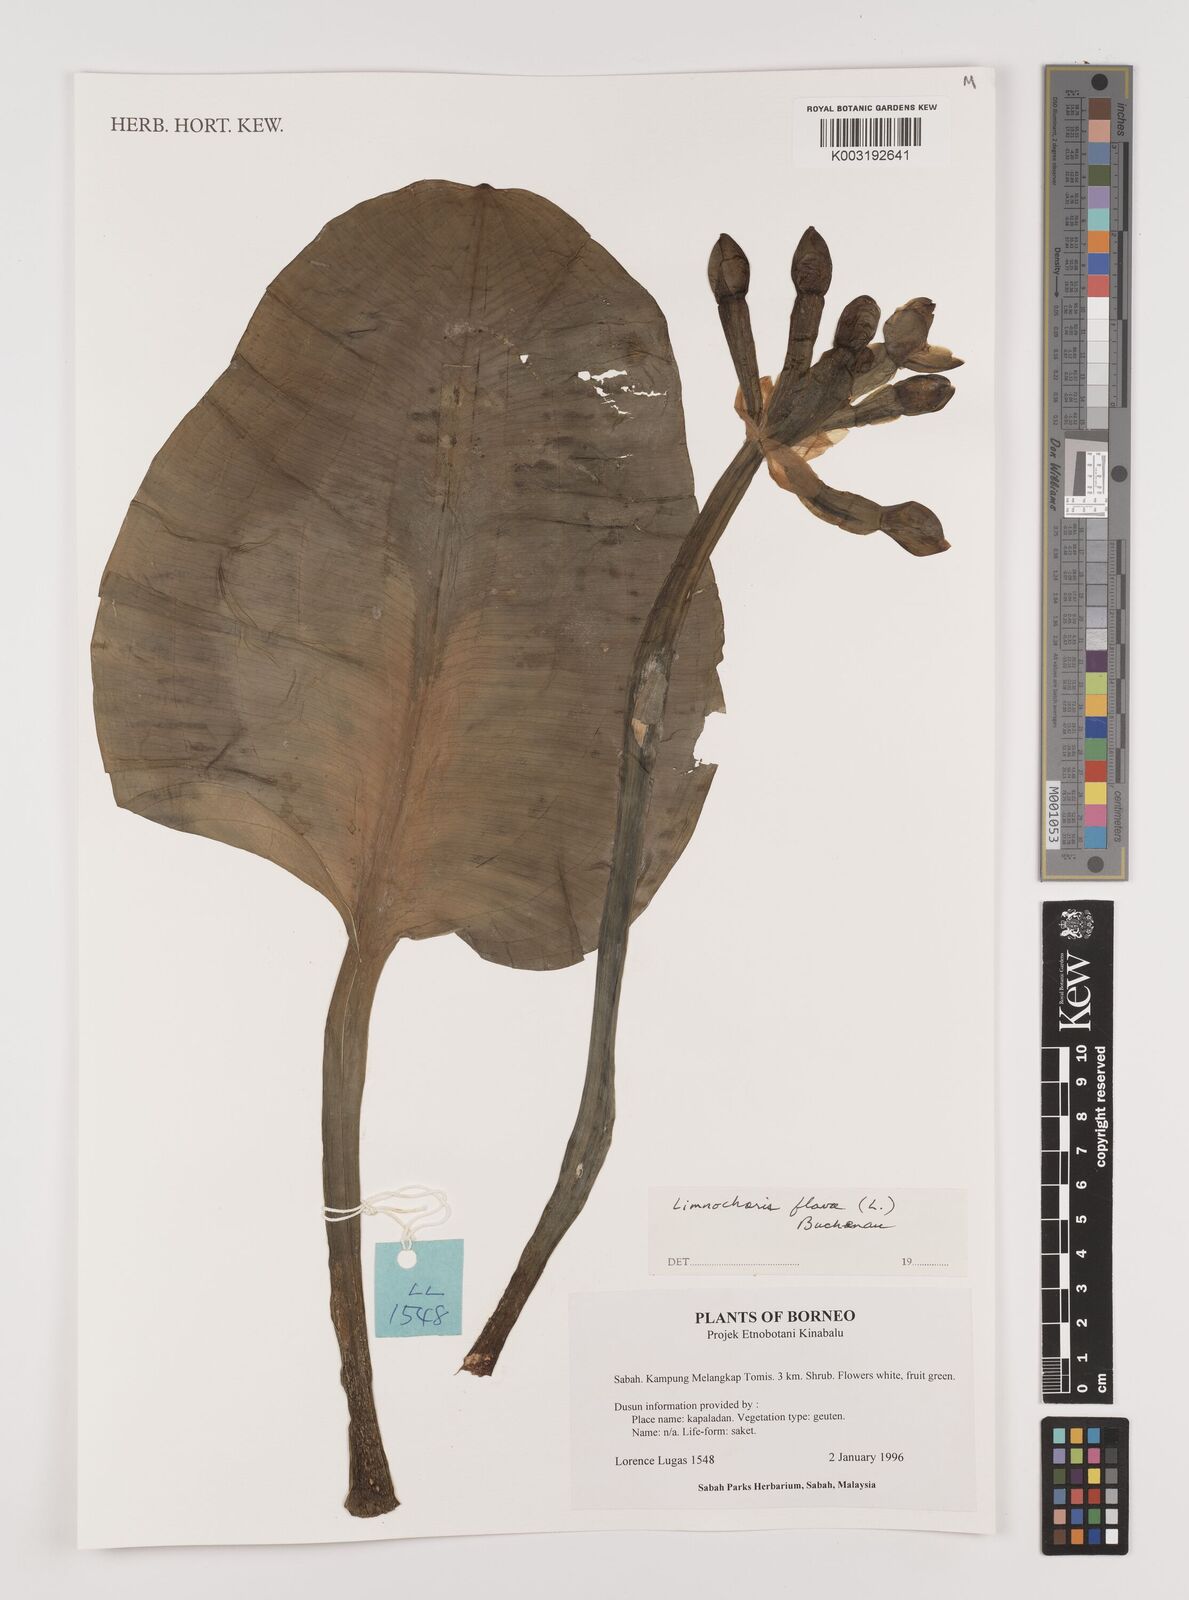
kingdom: Plantae
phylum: Tracheophyta
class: Liliopsida
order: Alismatales
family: Alismataceae
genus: Limnocharis
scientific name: Limnocharis flava
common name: Sawah-flower-rush
